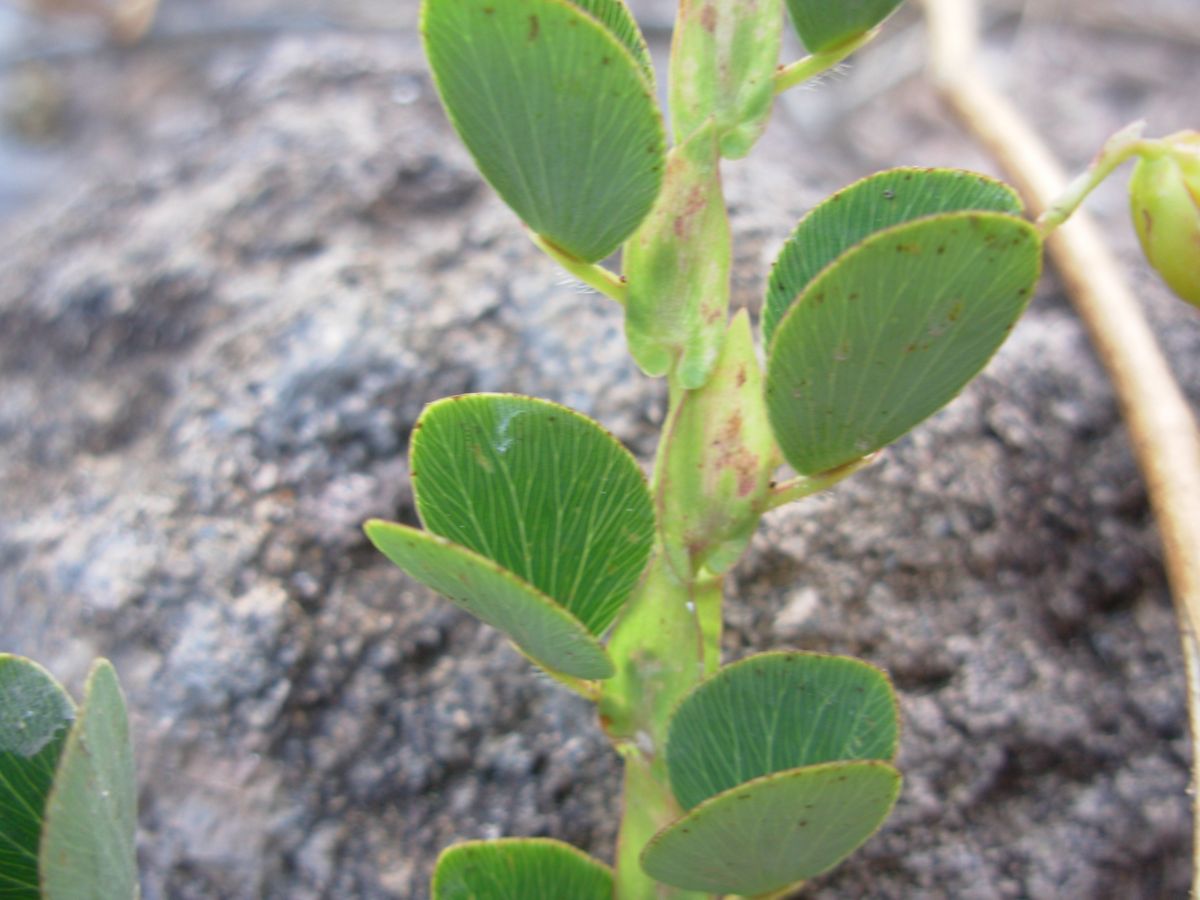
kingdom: Plantae
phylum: Tracheophyta
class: Magnoliopsida
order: Fabales
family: Fabaceae
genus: Chamaecrista
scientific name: Chamaecrista diphylla
